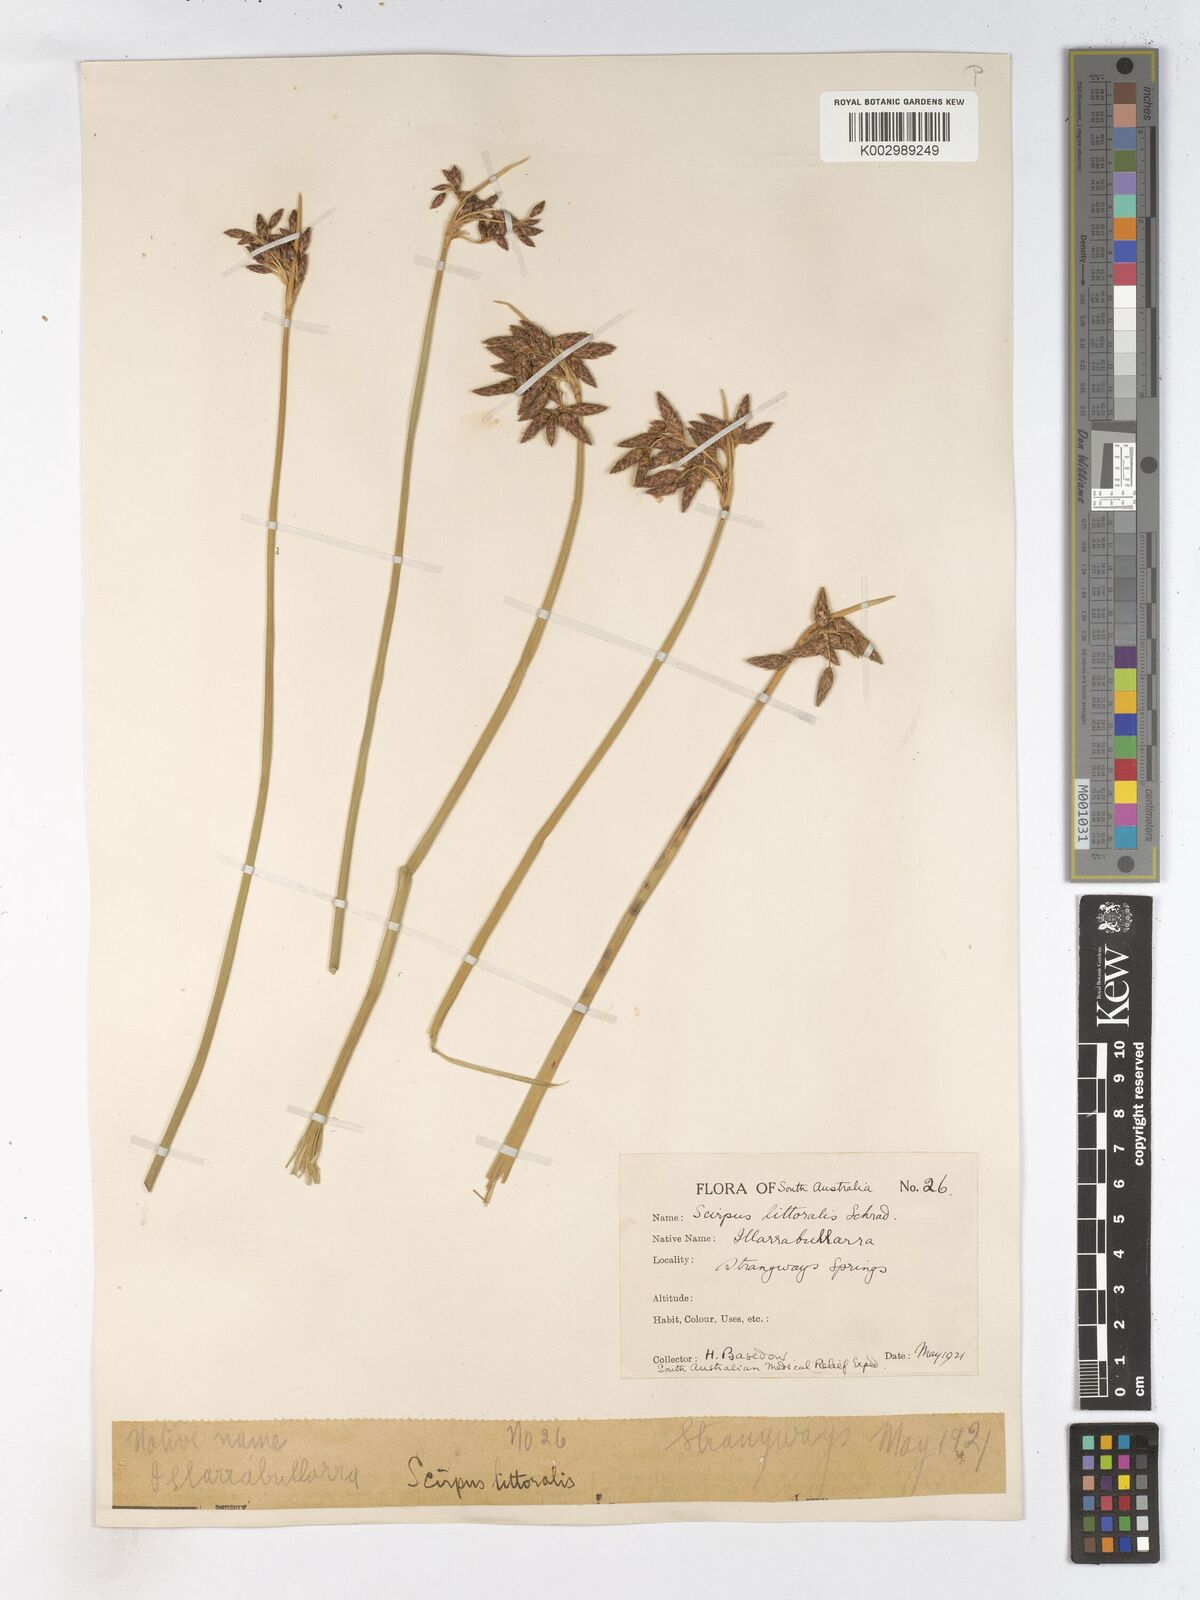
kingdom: Plantae
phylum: Tracheophyta
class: Liliopsida
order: Poales
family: Cyperaceae
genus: Schoenoplectus
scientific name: Schoenoplectus litoralis
